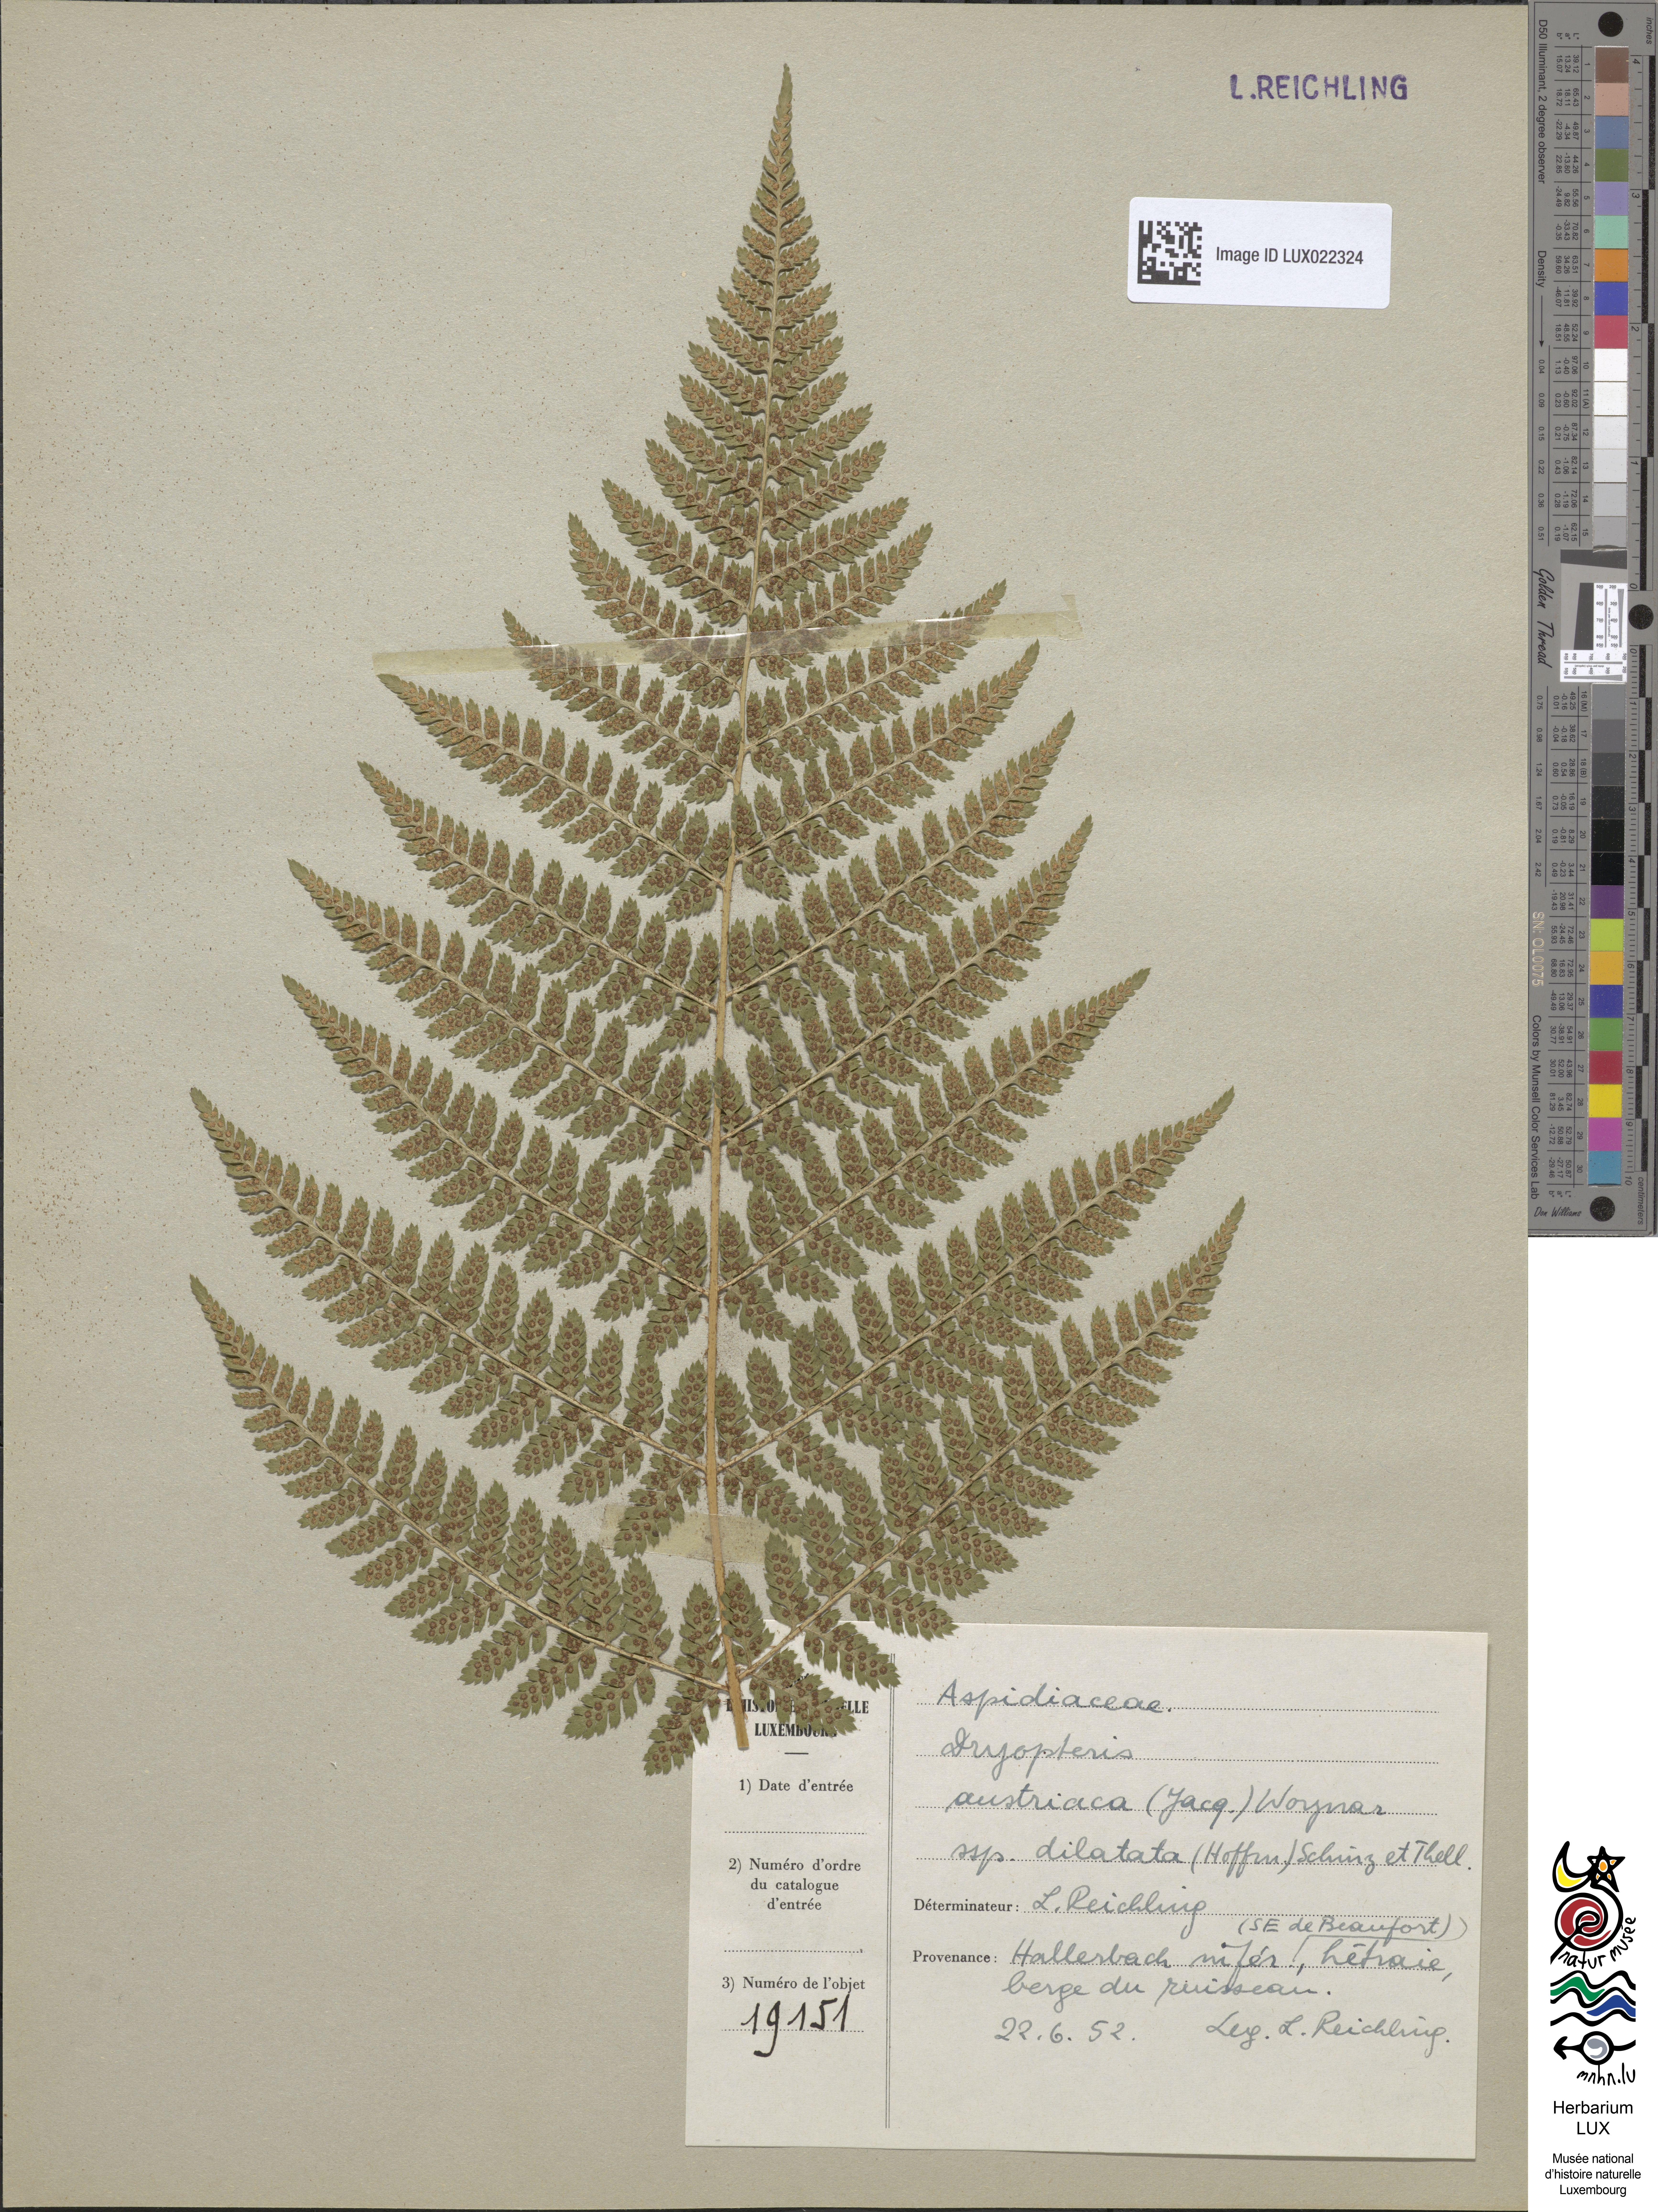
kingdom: Plantae
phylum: Tracheophyta
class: Polypodiopsida
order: Polypodiales
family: Dryopteridaceae
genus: Dryopteris
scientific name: Dryopteris dilatata
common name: Broad buckler-fern
